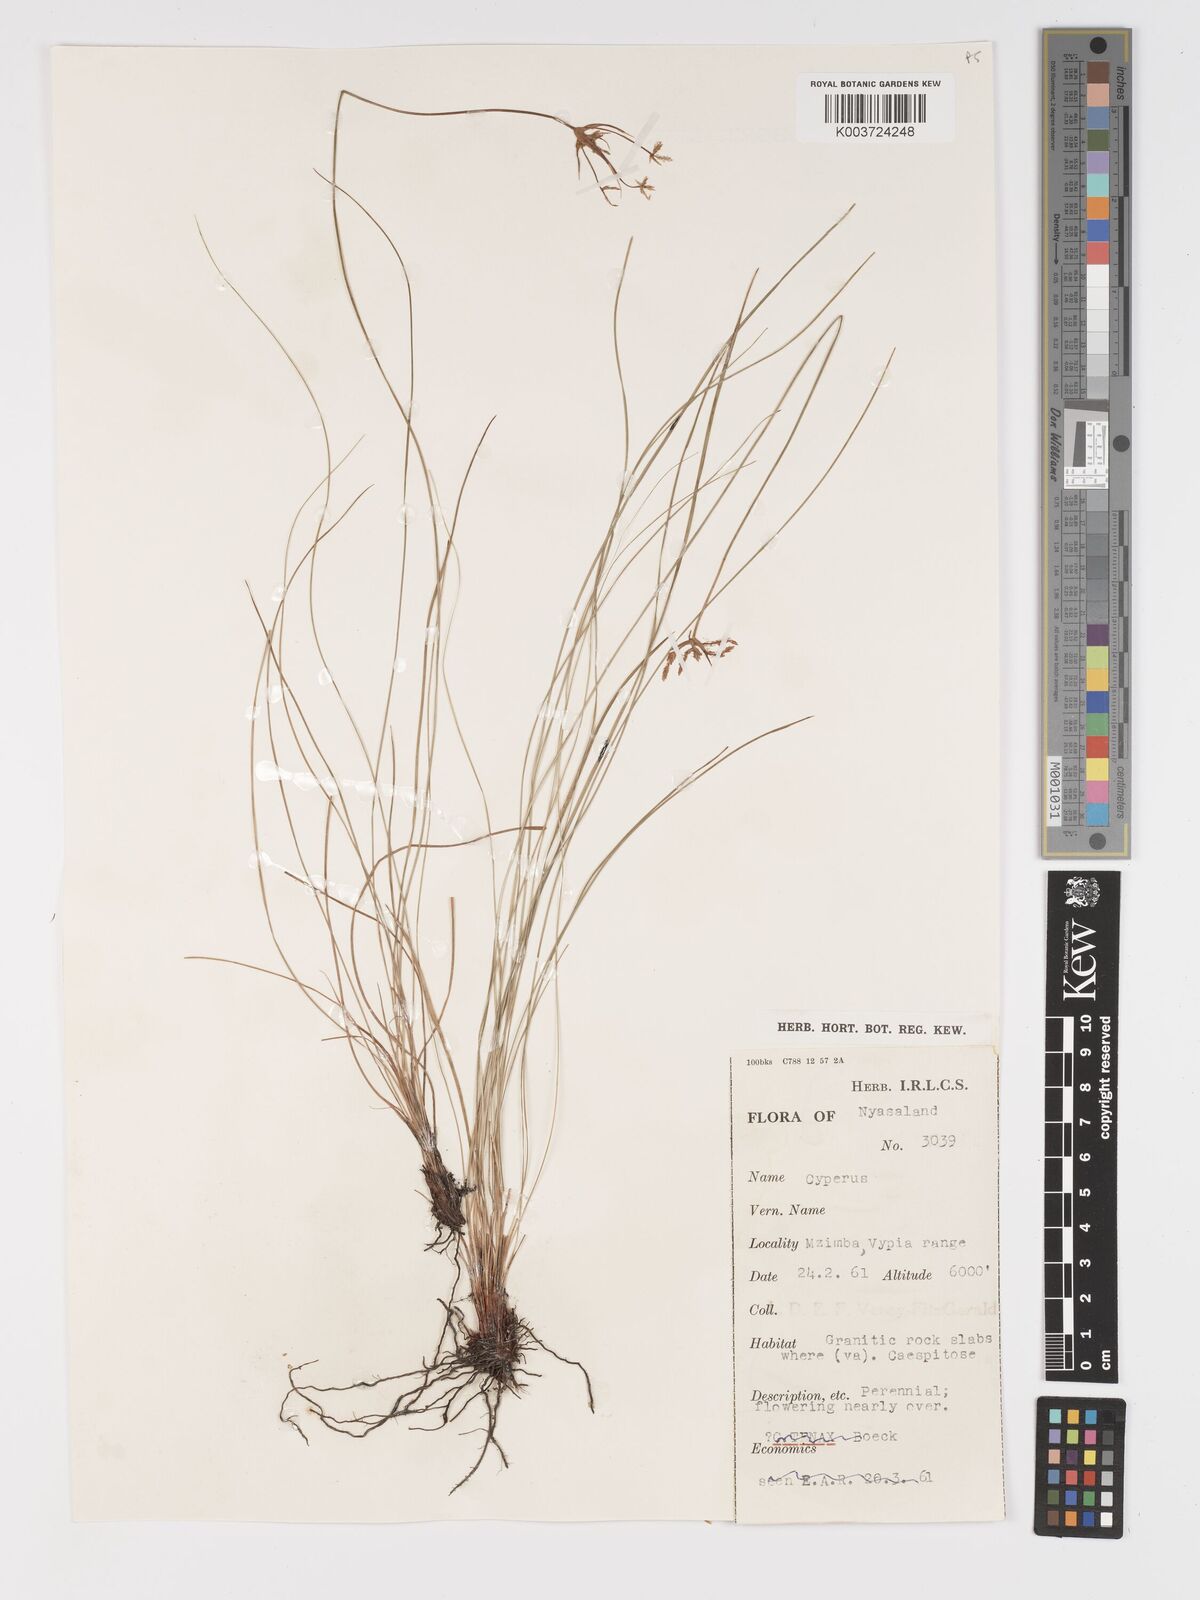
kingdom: Plantae
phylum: Tracheophyta
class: Liliopsida
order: Poales
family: Cyperaceae
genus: Cyperus
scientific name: Cyperus
